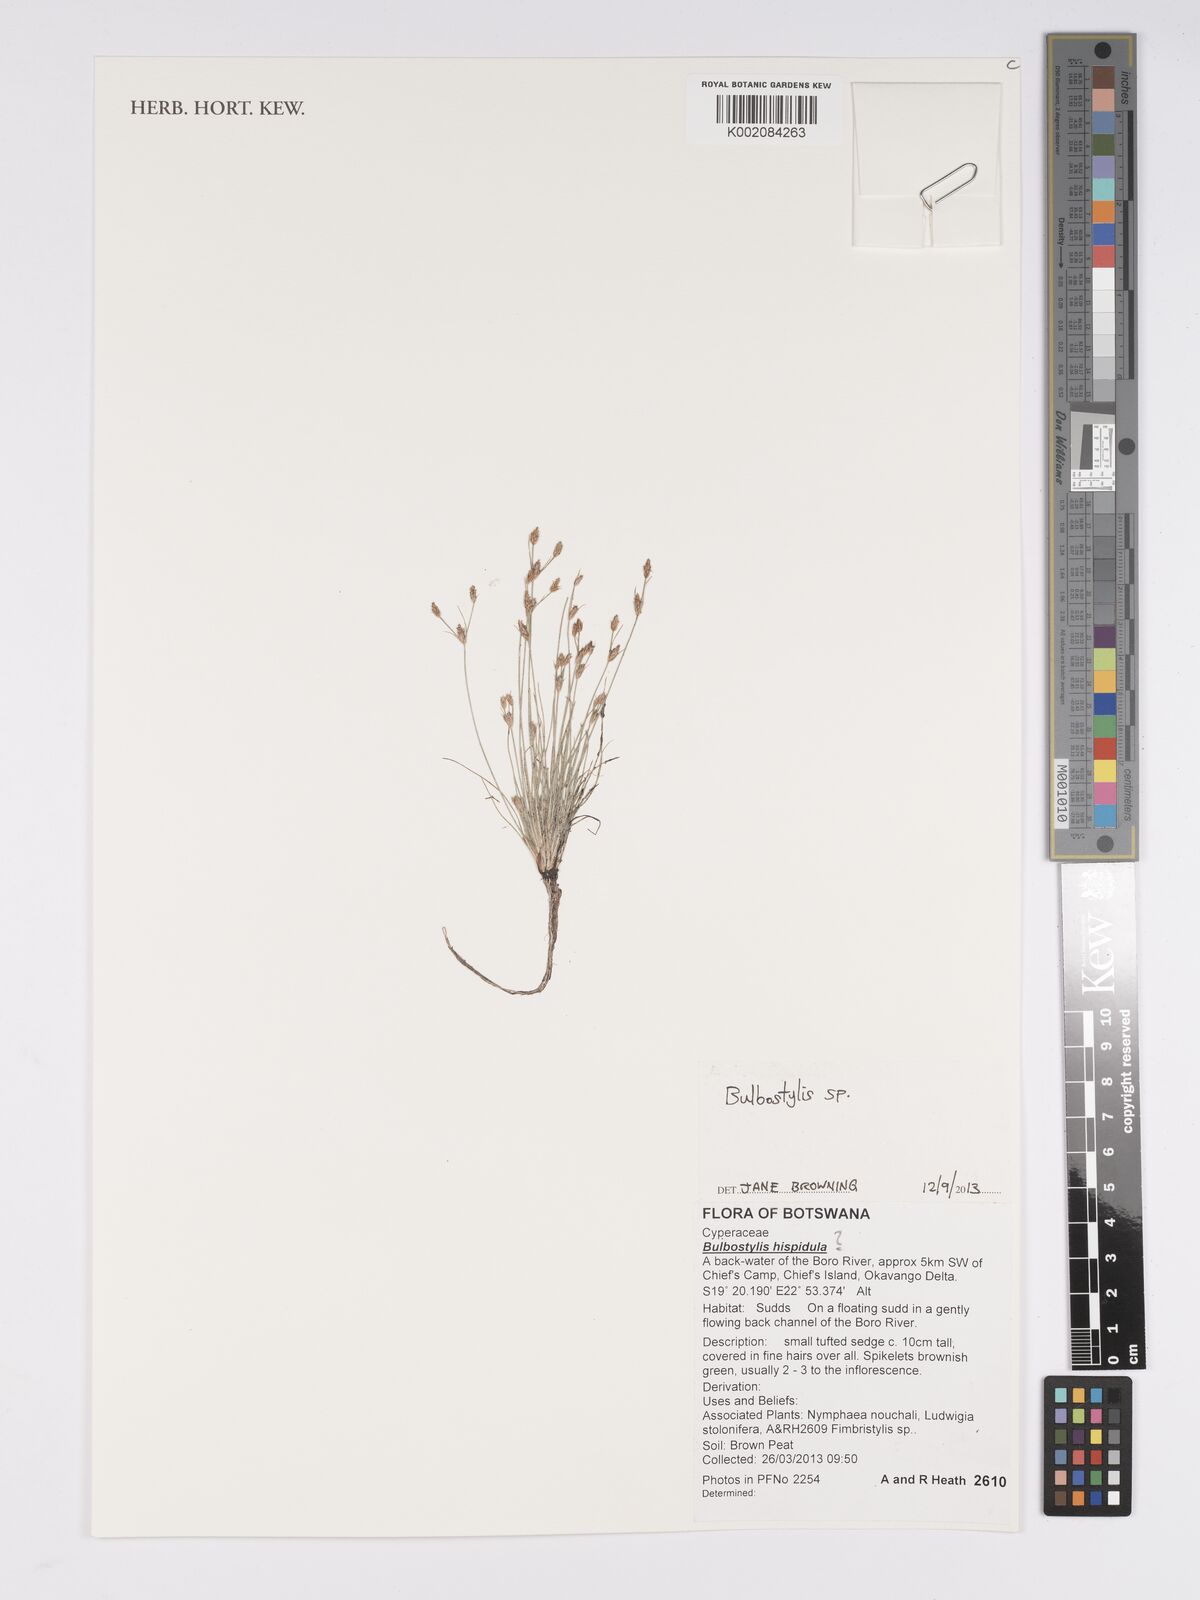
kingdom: Plantae
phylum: Tracheophyta
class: Liliopsida
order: Poales
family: Cyperaceae
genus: Bulbostylis
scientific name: Bulbostylis
